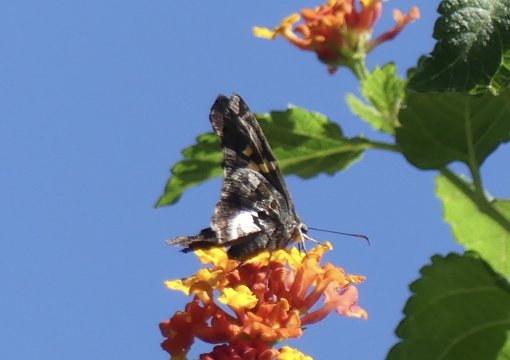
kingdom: Animalia
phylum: Arthropoda
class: Insecta
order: Lepidoptera
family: Hesperiidae
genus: Chioides
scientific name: Chioides zilpa
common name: Zilpa Longtail
